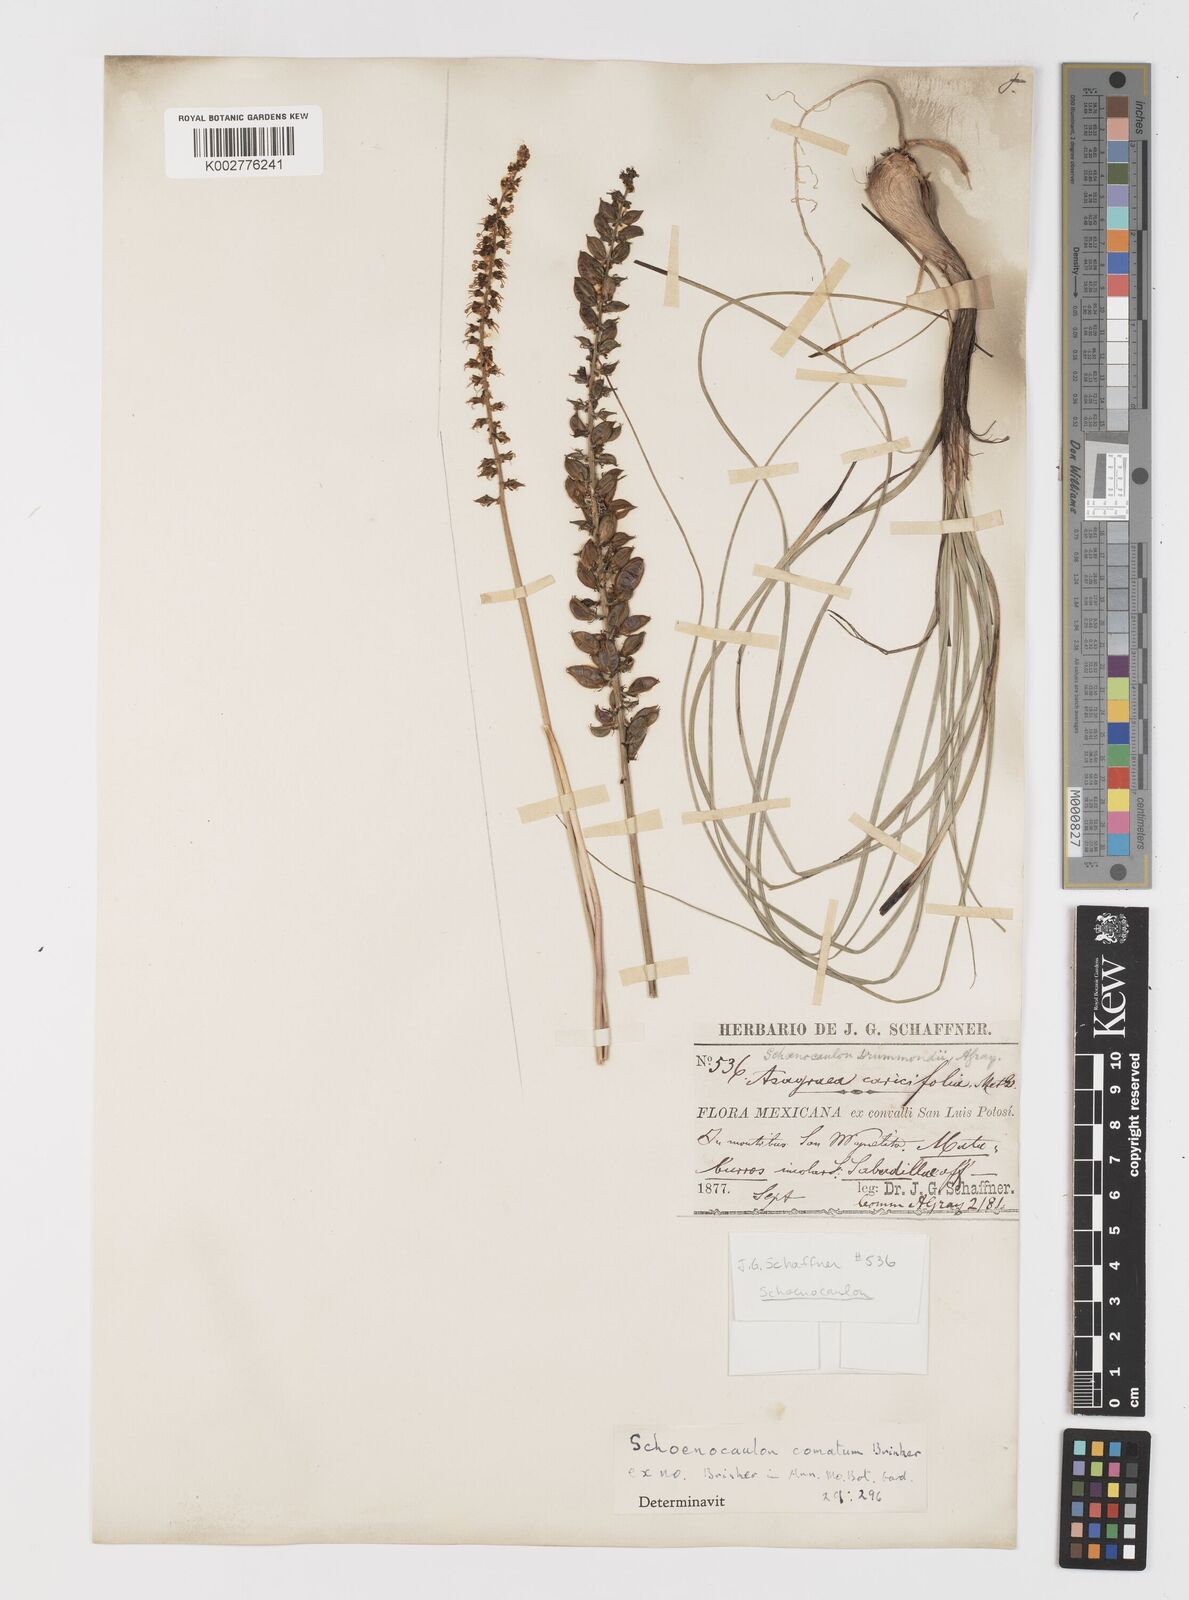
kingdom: Plantae
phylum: Tracheophyta
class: Liliopsida
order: Liliales
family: Melanthiaceae
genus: Schoenocaulon
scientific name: Schoenocaulon comatum
